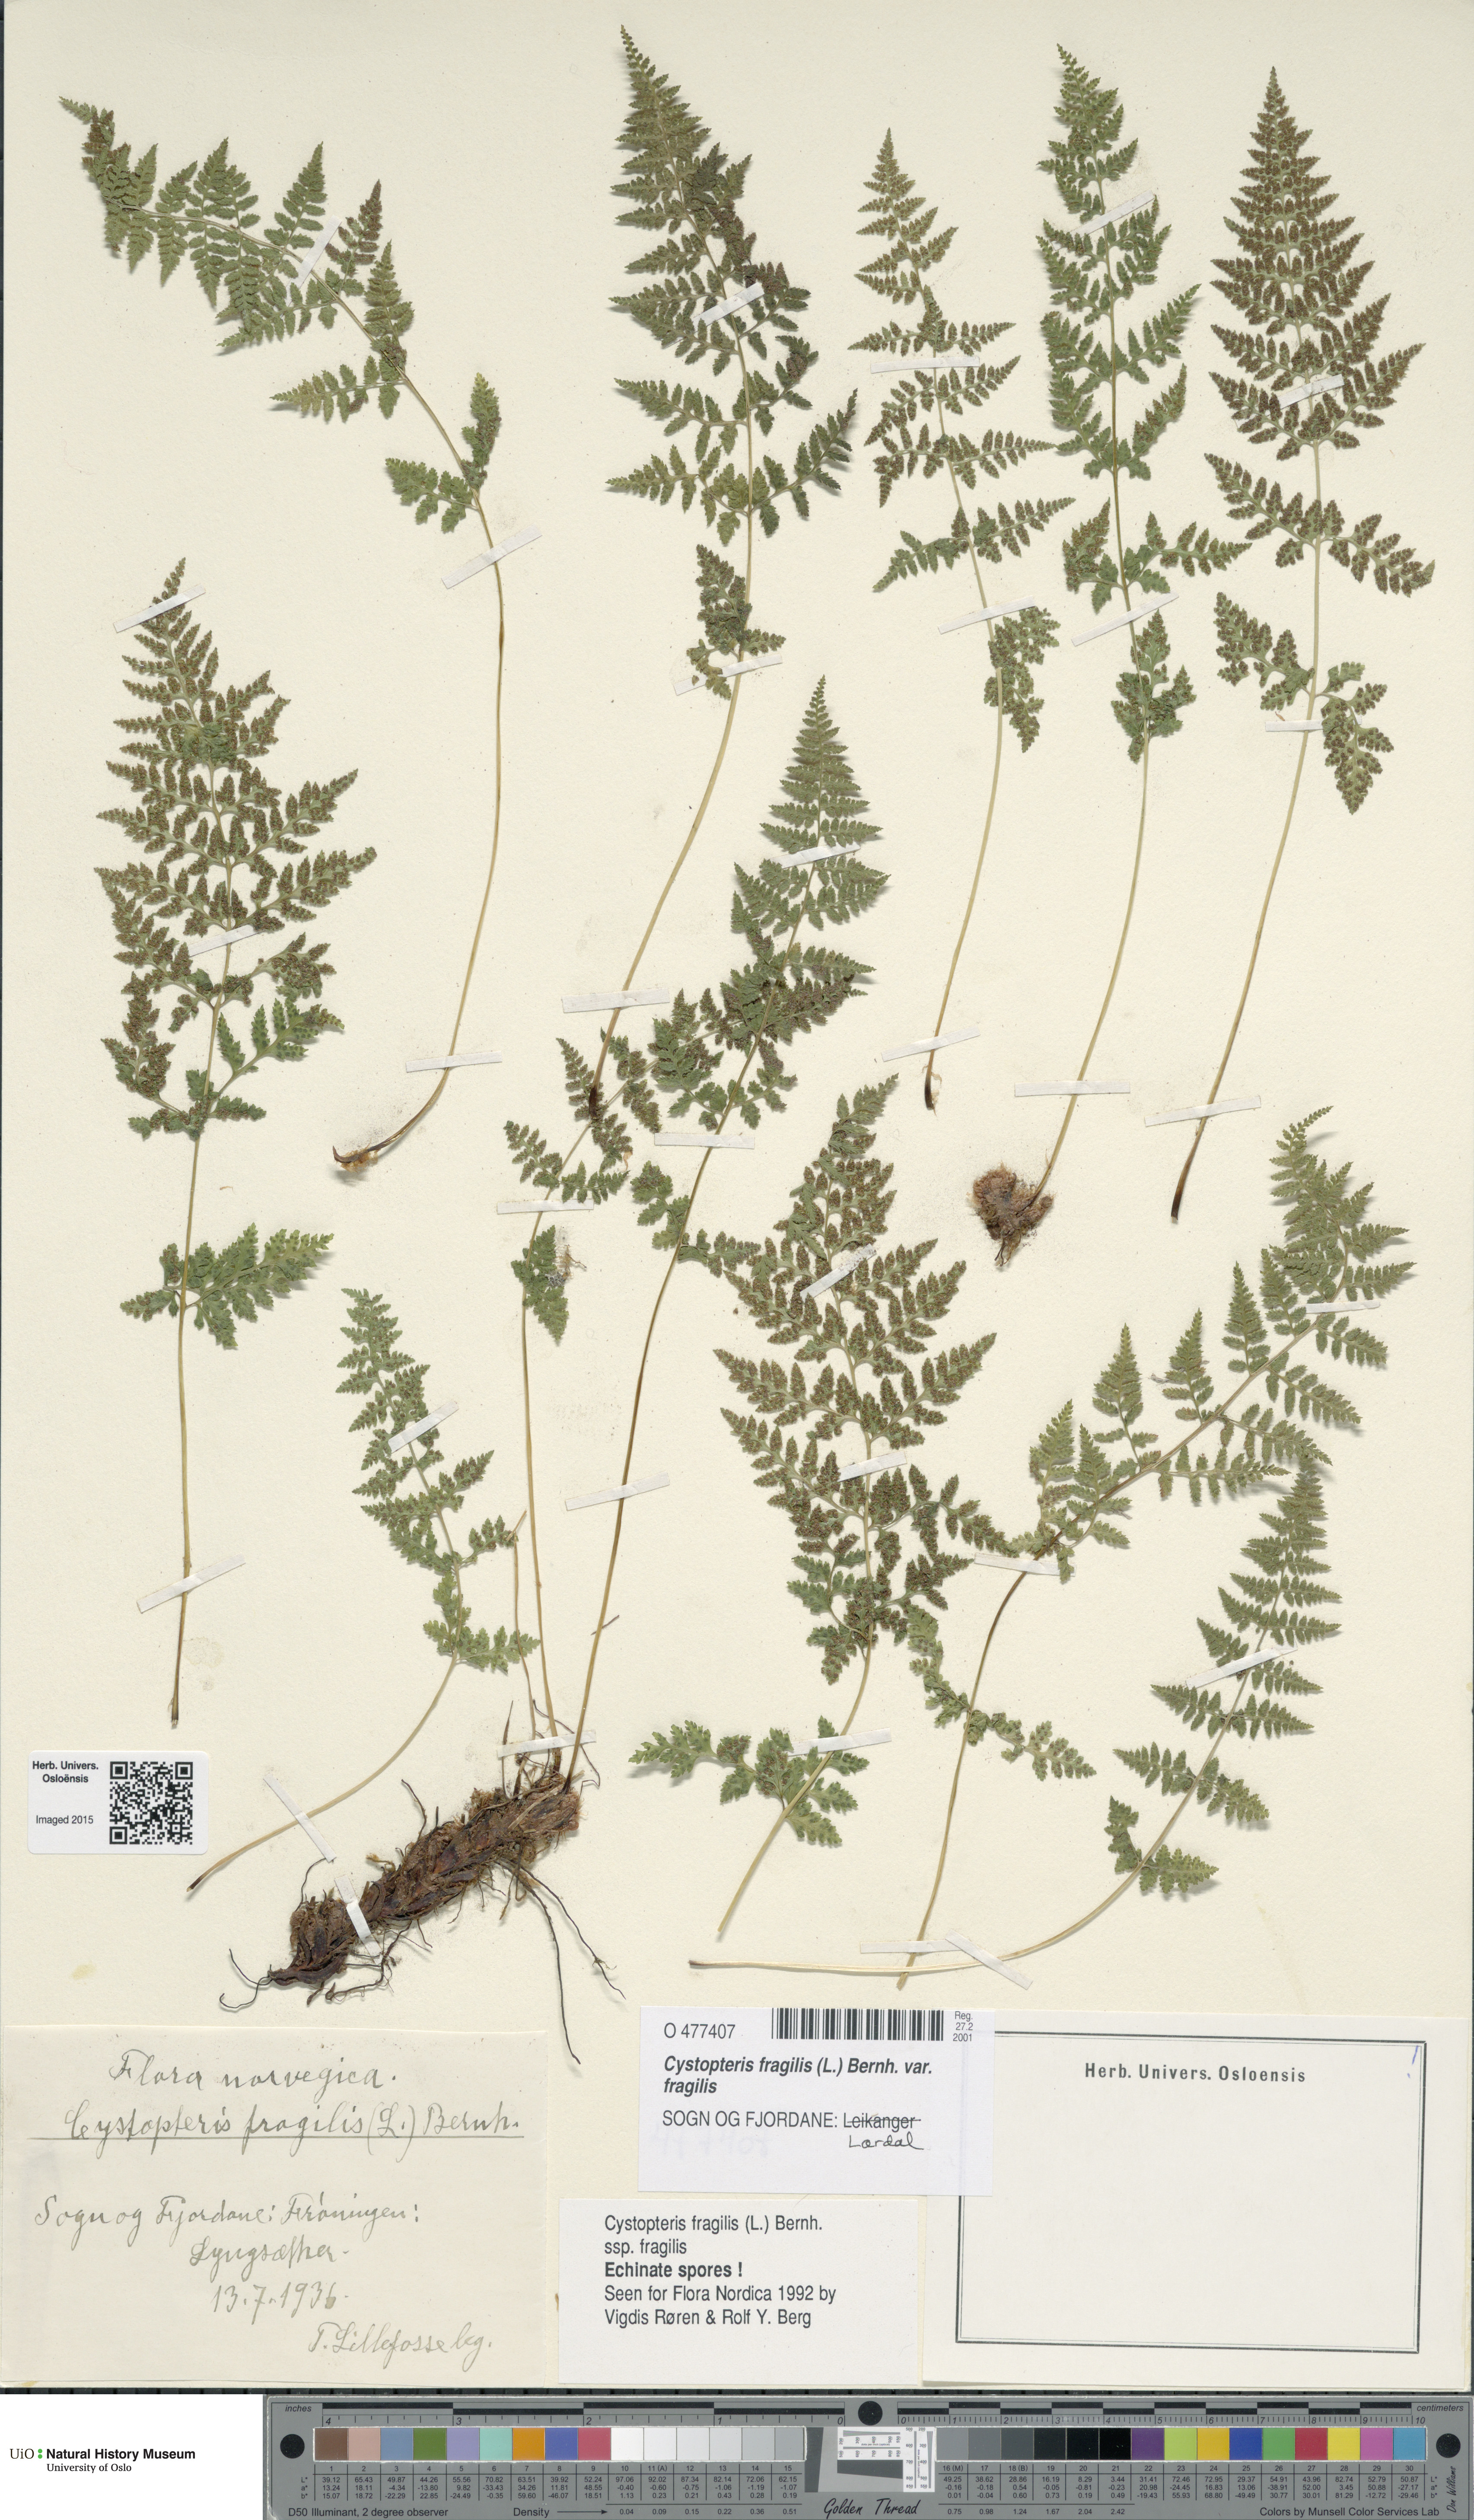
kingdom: Plantae
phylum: Tracheophyta
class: Polypodiopsida
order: Polypodiales
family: Cystopteridaceae
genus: Cystopteris
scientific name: Cystopteris fragilis
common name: Brittle bladder fern
